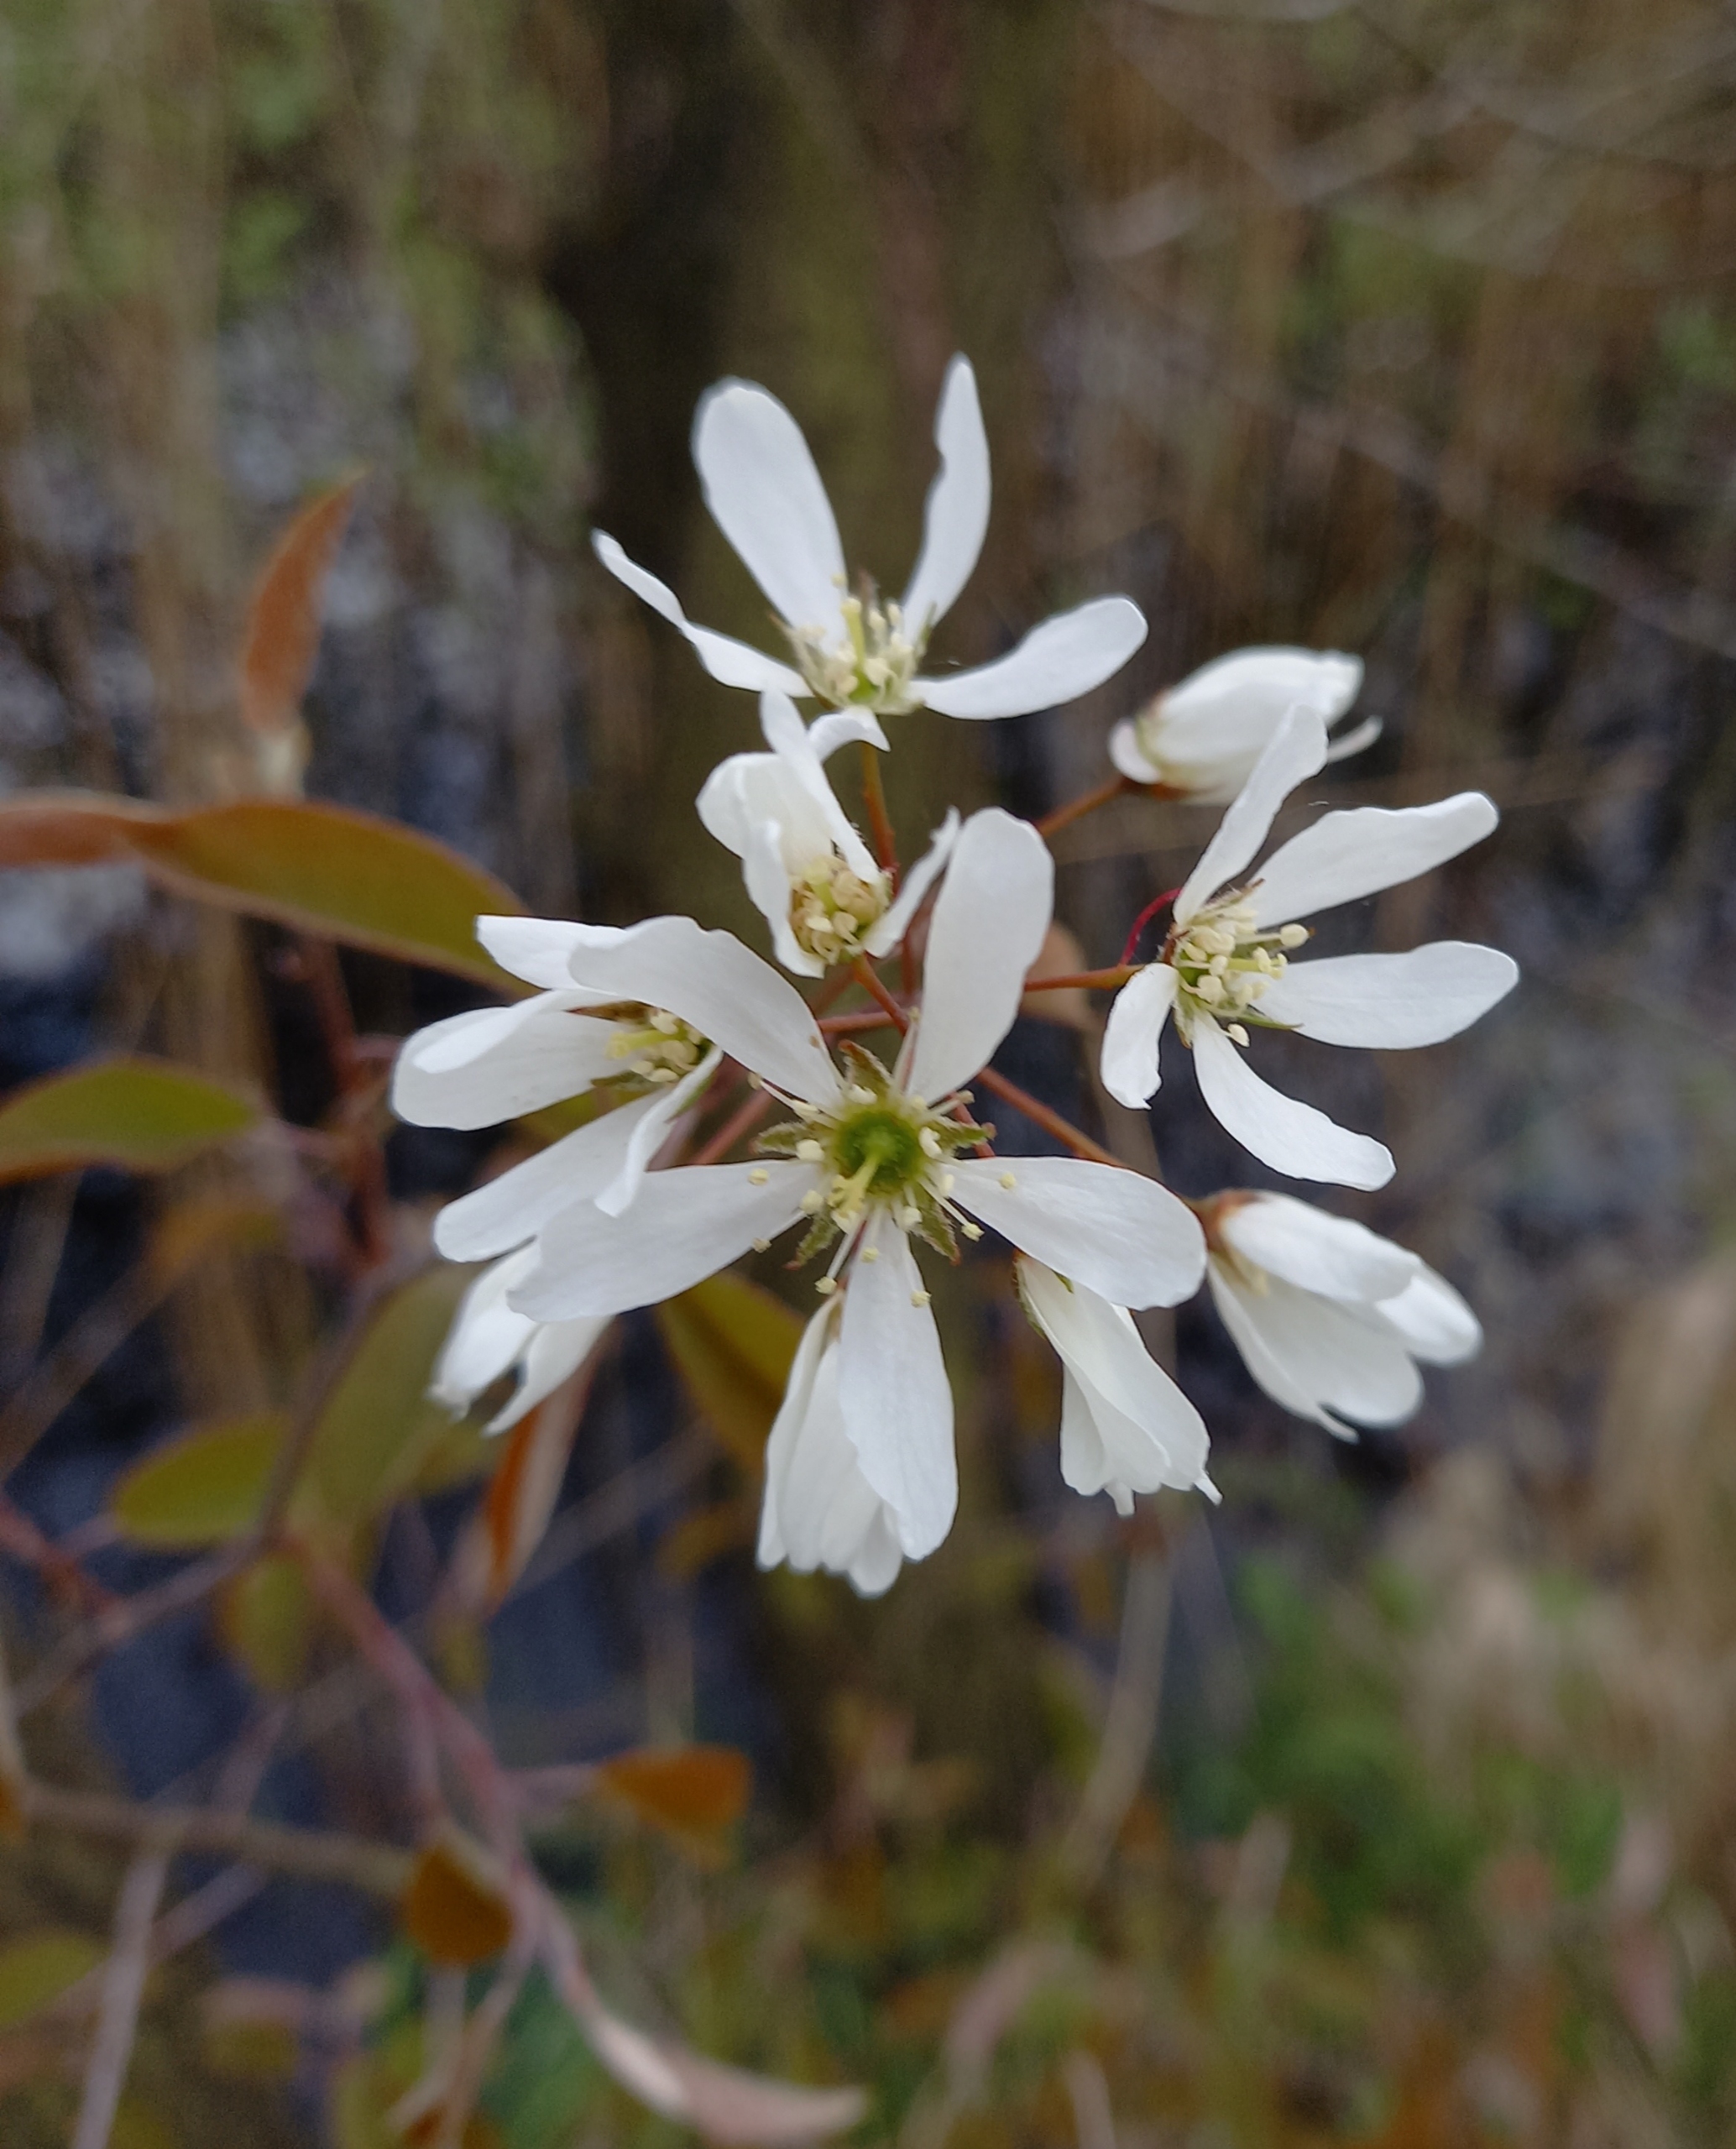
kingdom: Plantae
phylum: Tracheophyta
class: Magnoliopsida
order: Rosales
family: Rosaceae
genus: Amelanchier
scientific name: Amelanchier lamarckii
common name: Bærmispel
